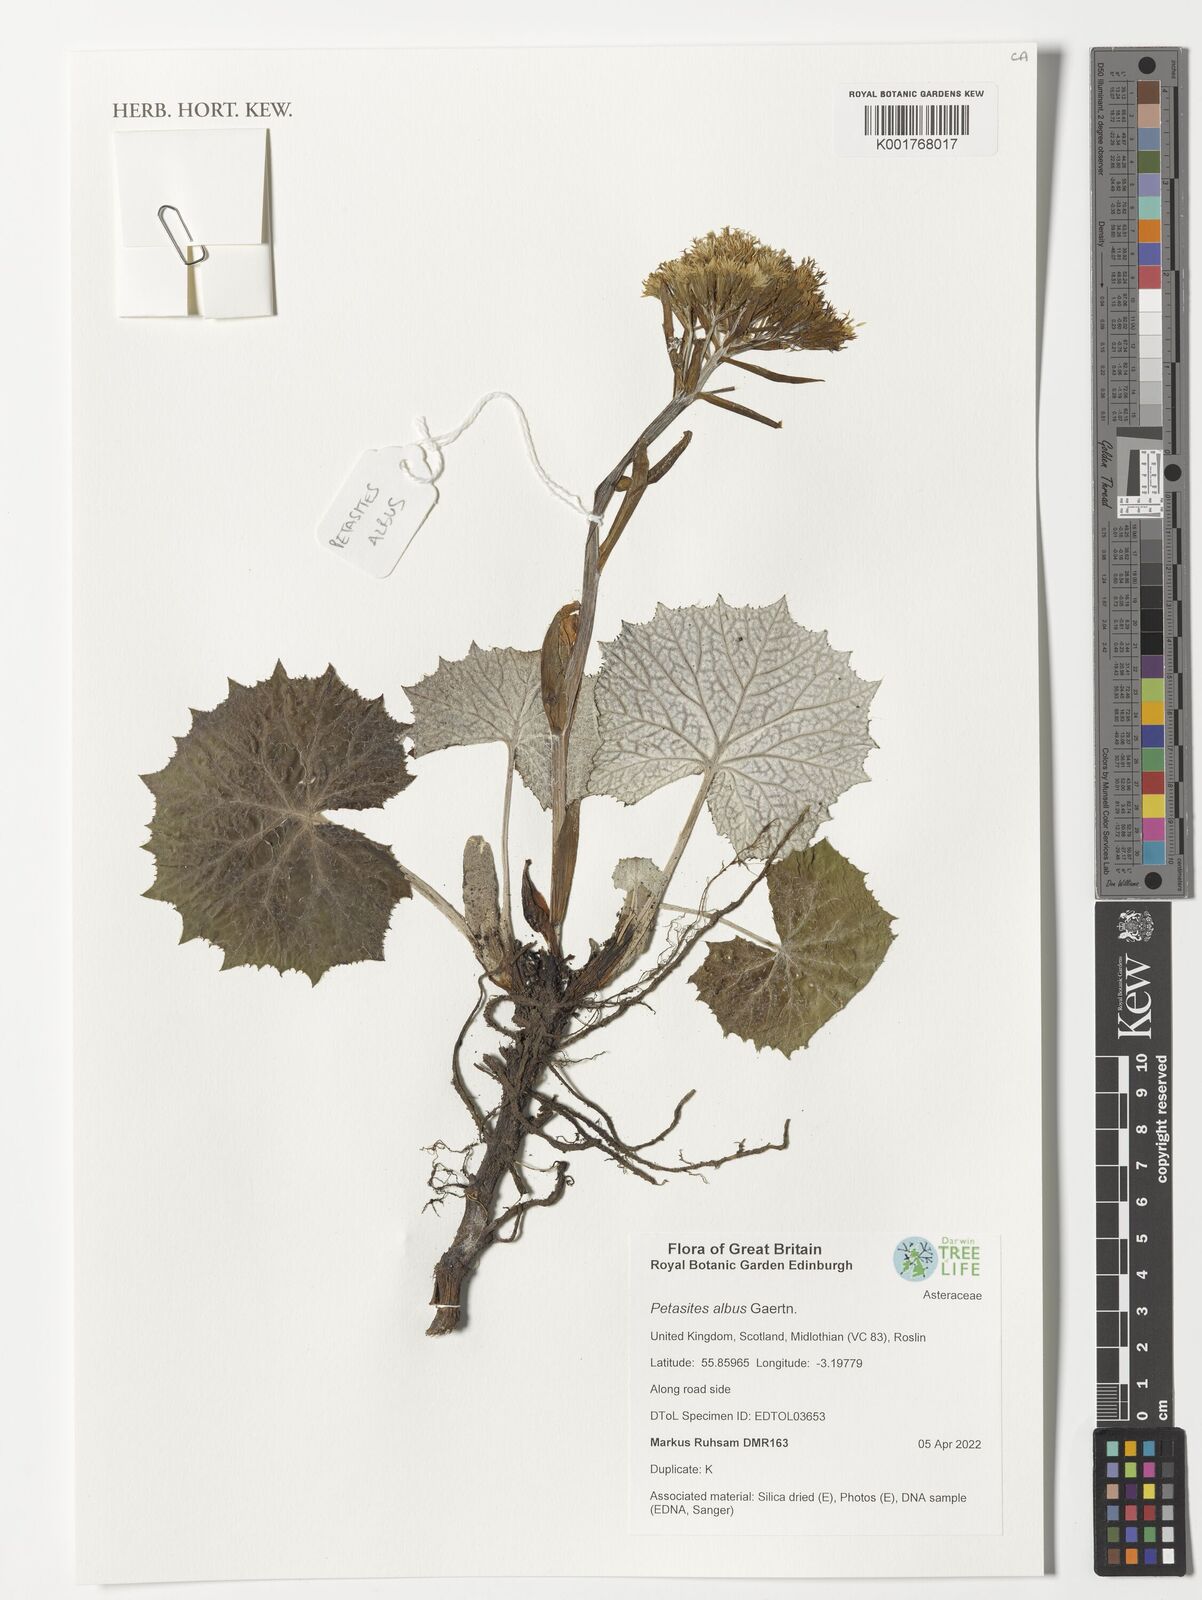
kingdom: Plantae
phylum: Tracheophyta
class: Magnoliopsida
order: Asterales
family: Asteraceae
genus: Petasites
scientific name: Petasites albus
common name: White butterbur
